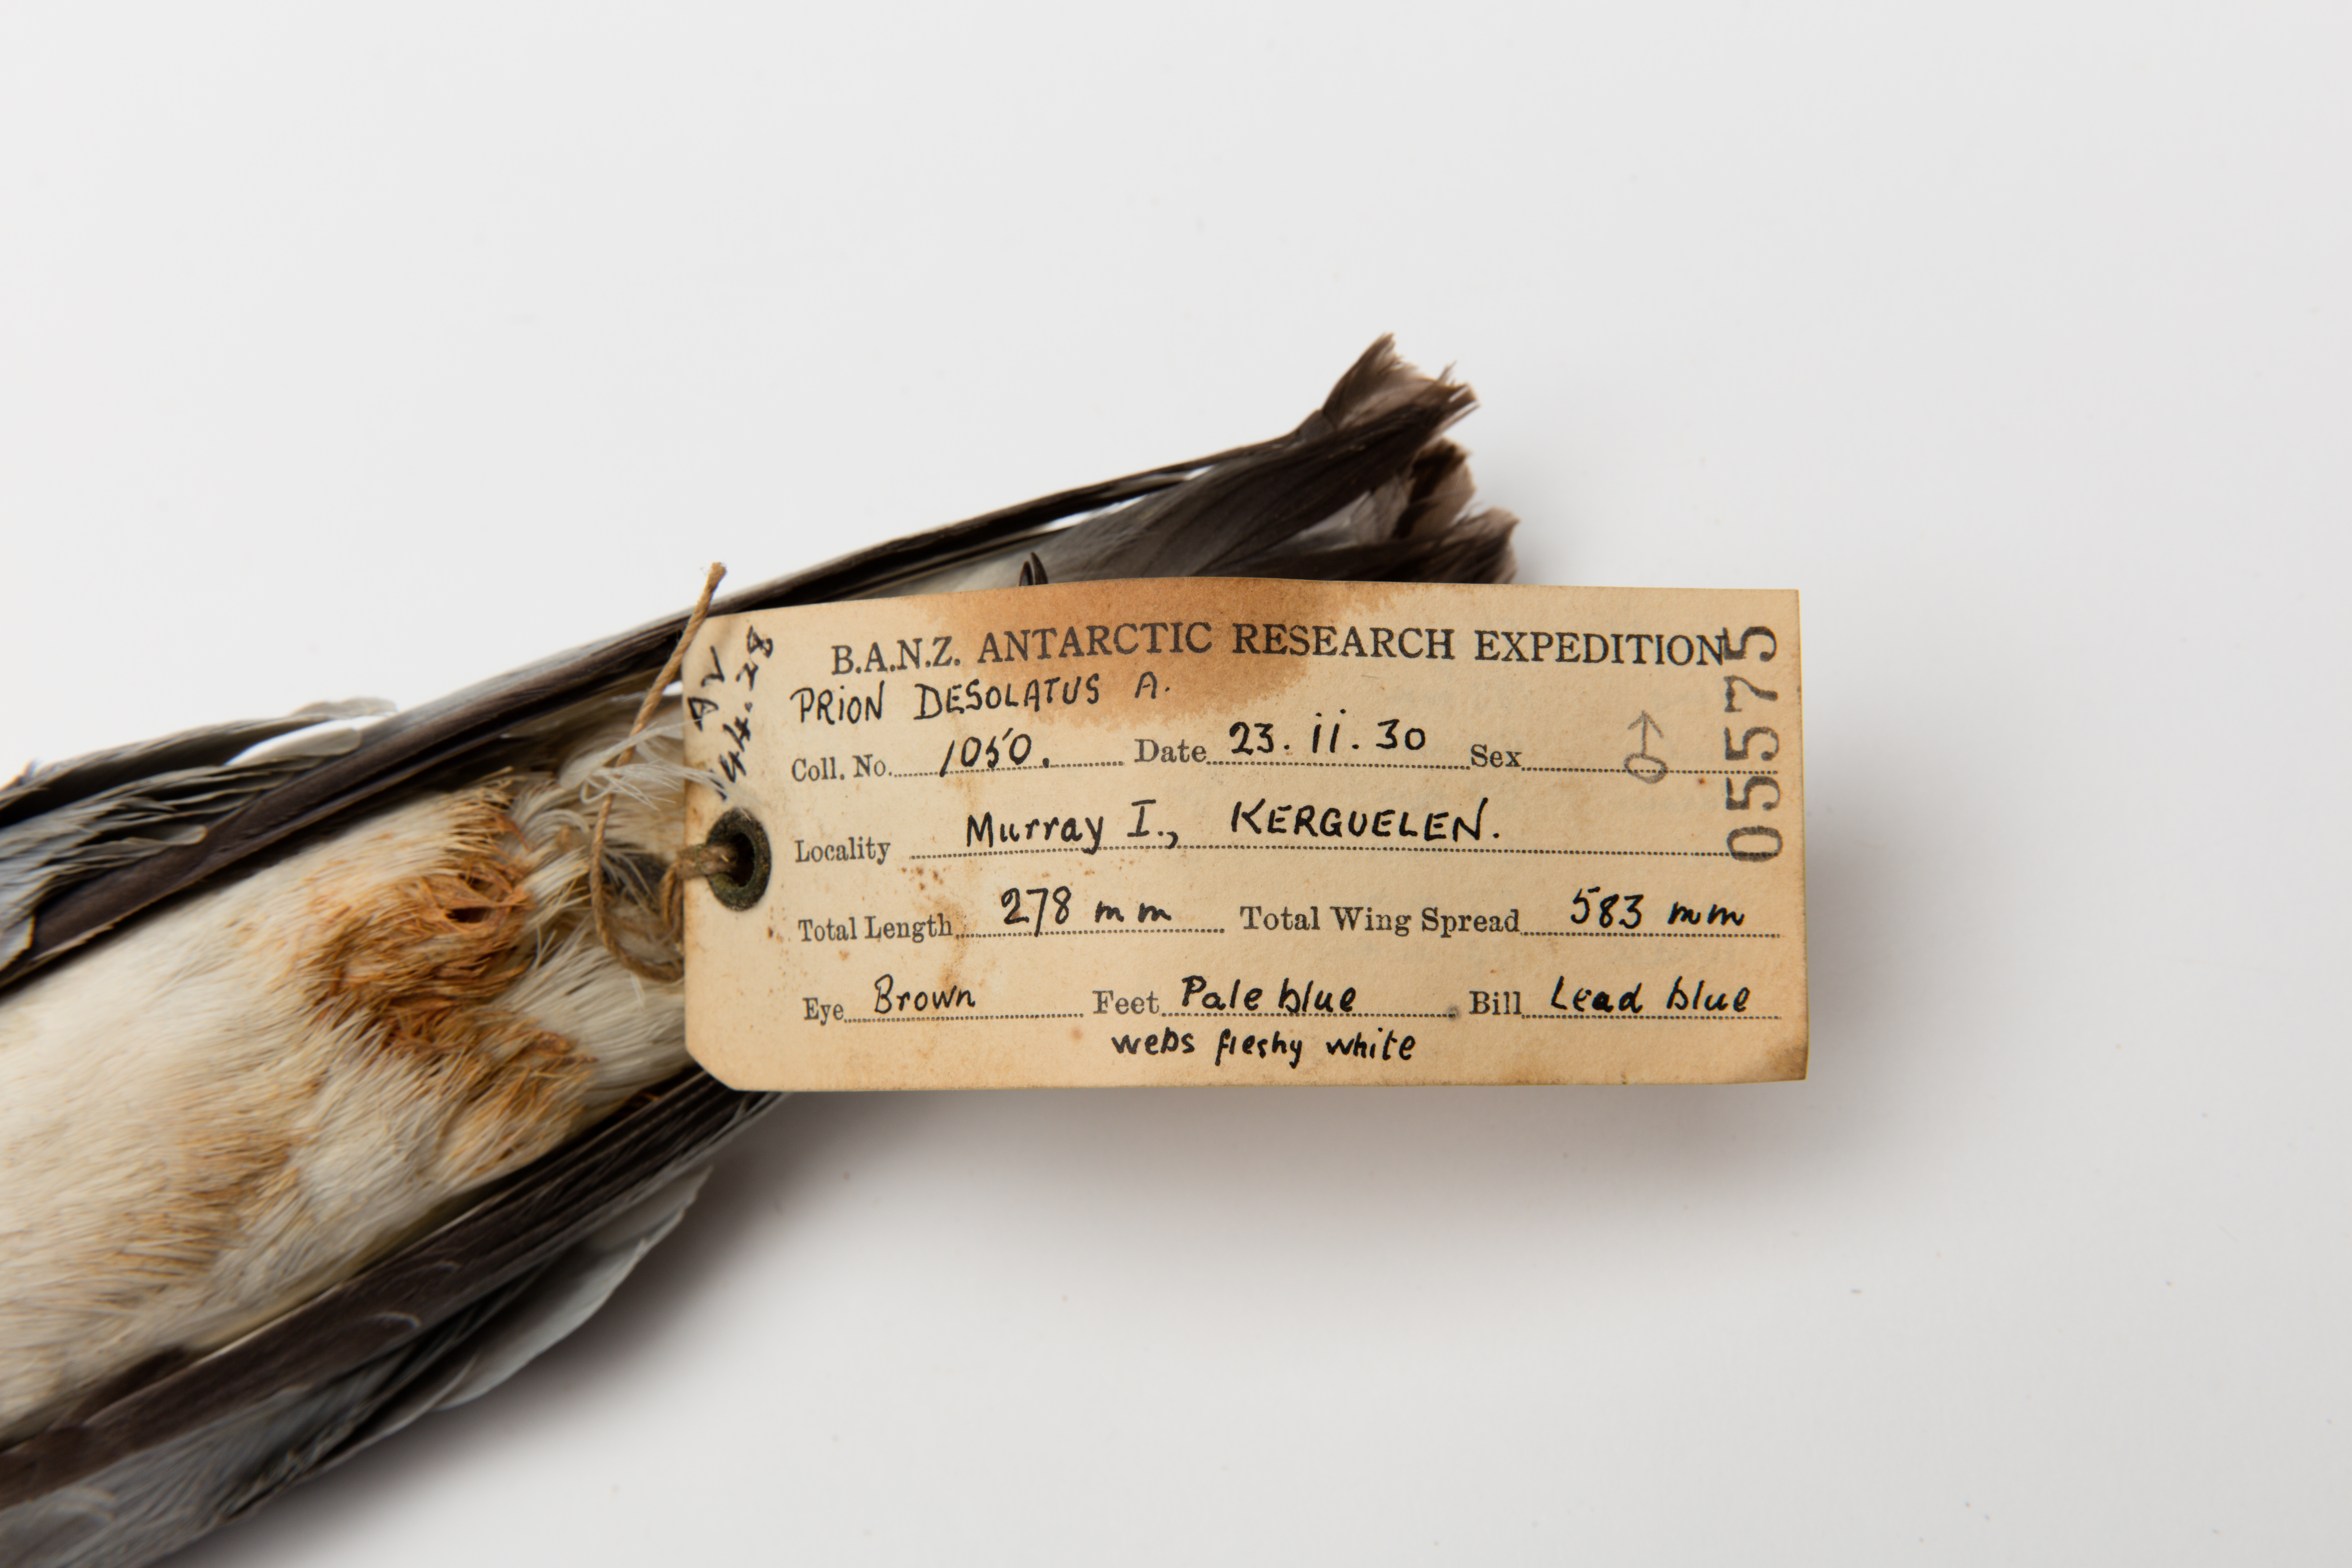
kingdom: Animalia
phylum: Chordata
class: Aves
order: Procellariiformes
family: Procellariidae
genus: Pachyptila
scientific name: Pachyptila desolata
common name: Antarctic prion
